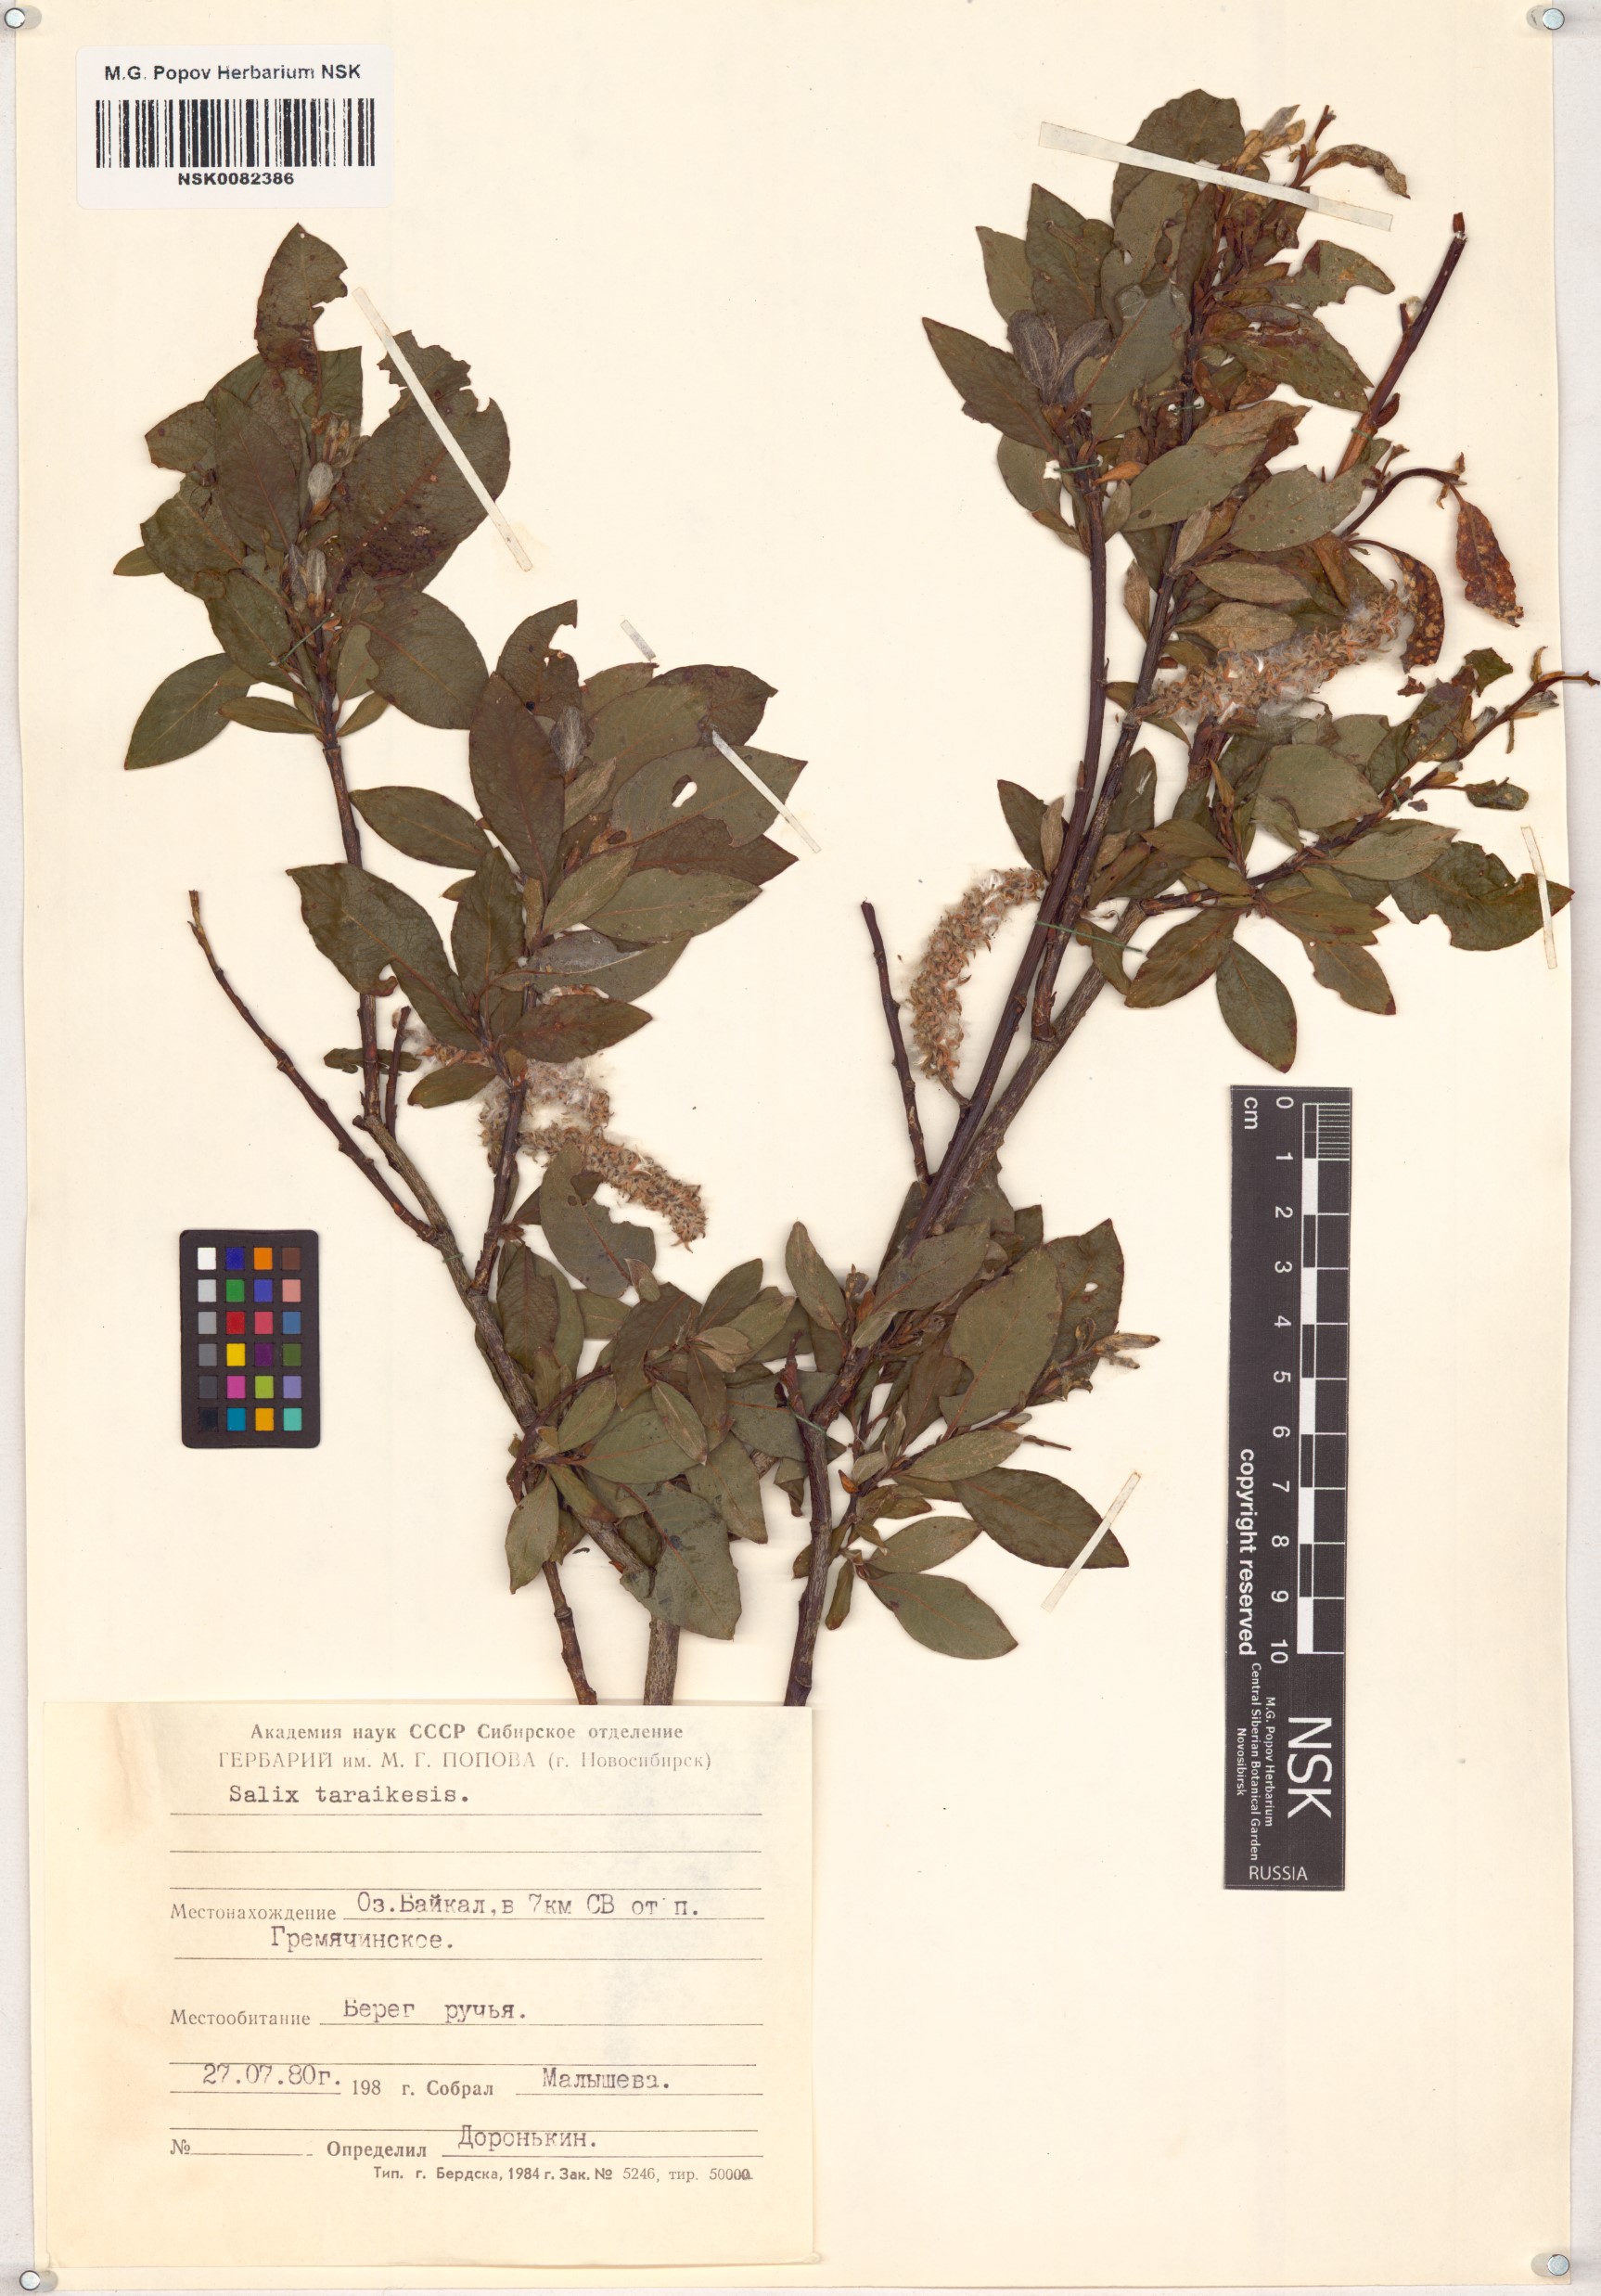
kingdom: Plantae
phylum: Tracheophyta
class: Magnoliopsida
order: Malpighiales
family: Salicaceae
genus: Salix
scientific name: Salix taraikensis
